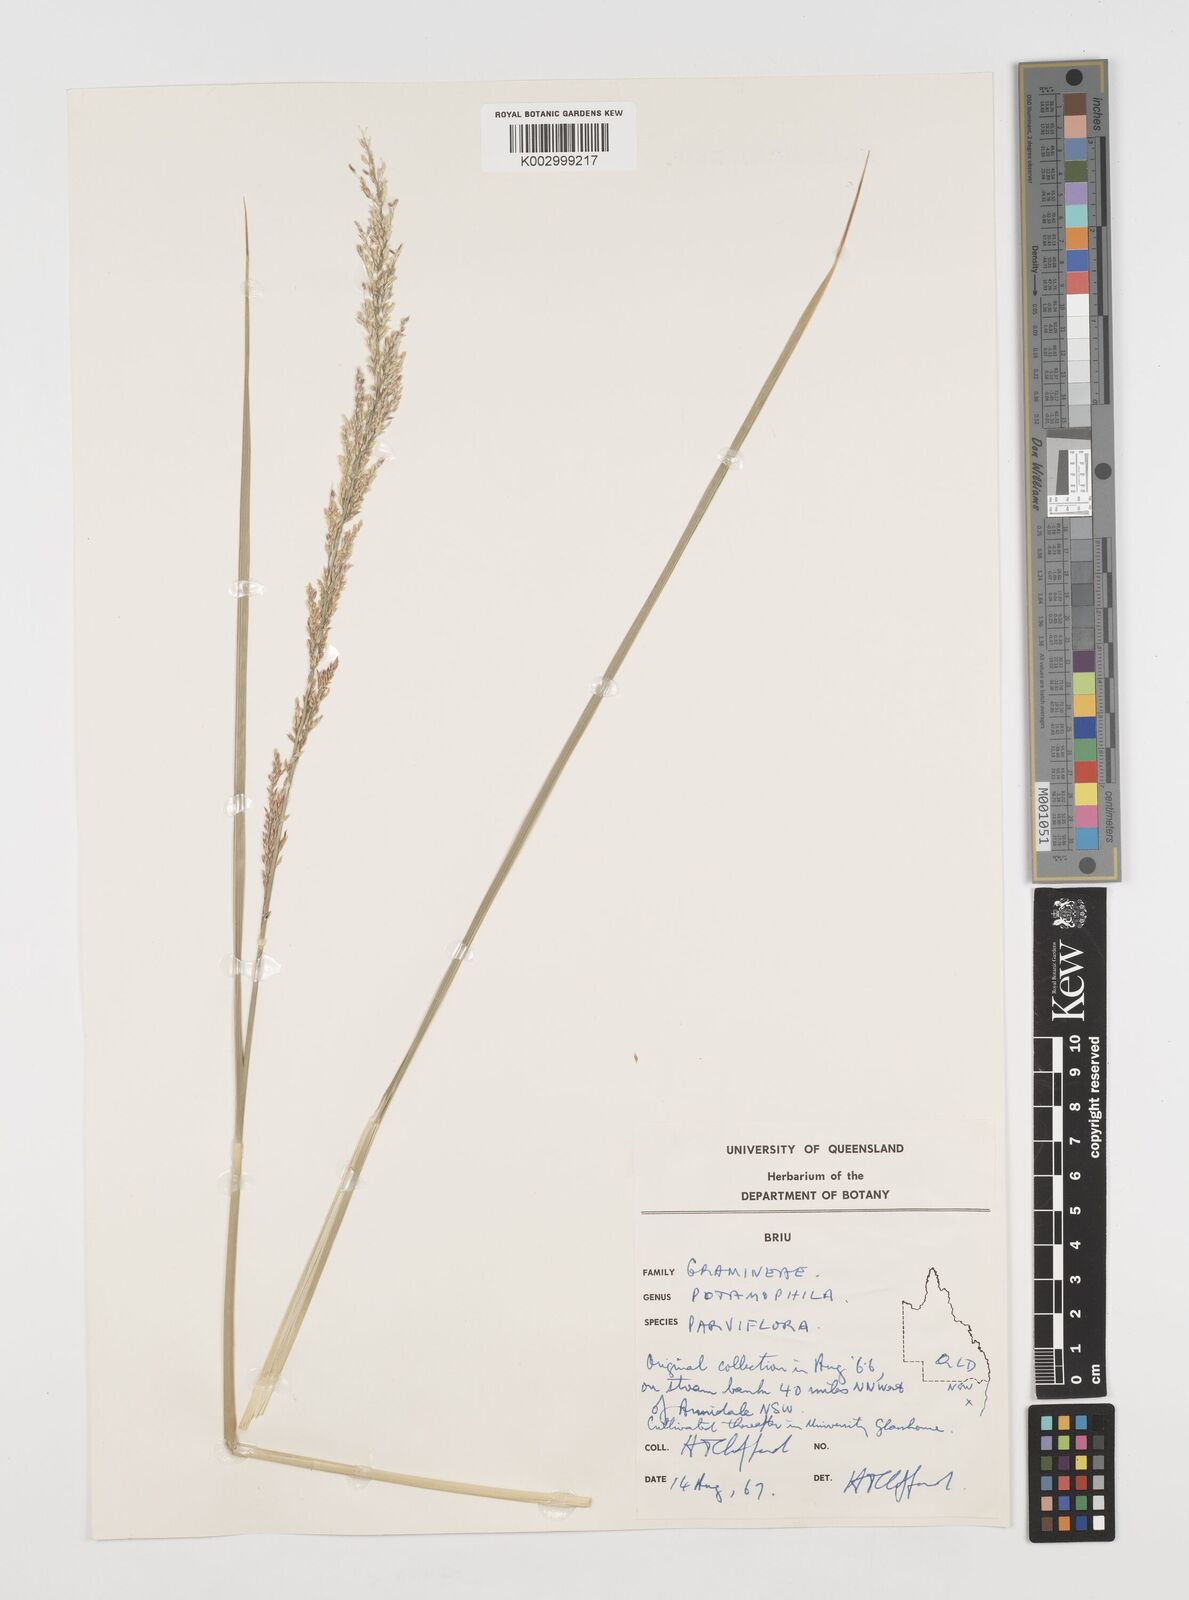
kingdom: Plantae
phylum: Tracheophyta
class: Magnoliopsida
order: Caryophyllales
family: Microteaceae
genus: Microtea
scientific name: Microtea maypurensis
